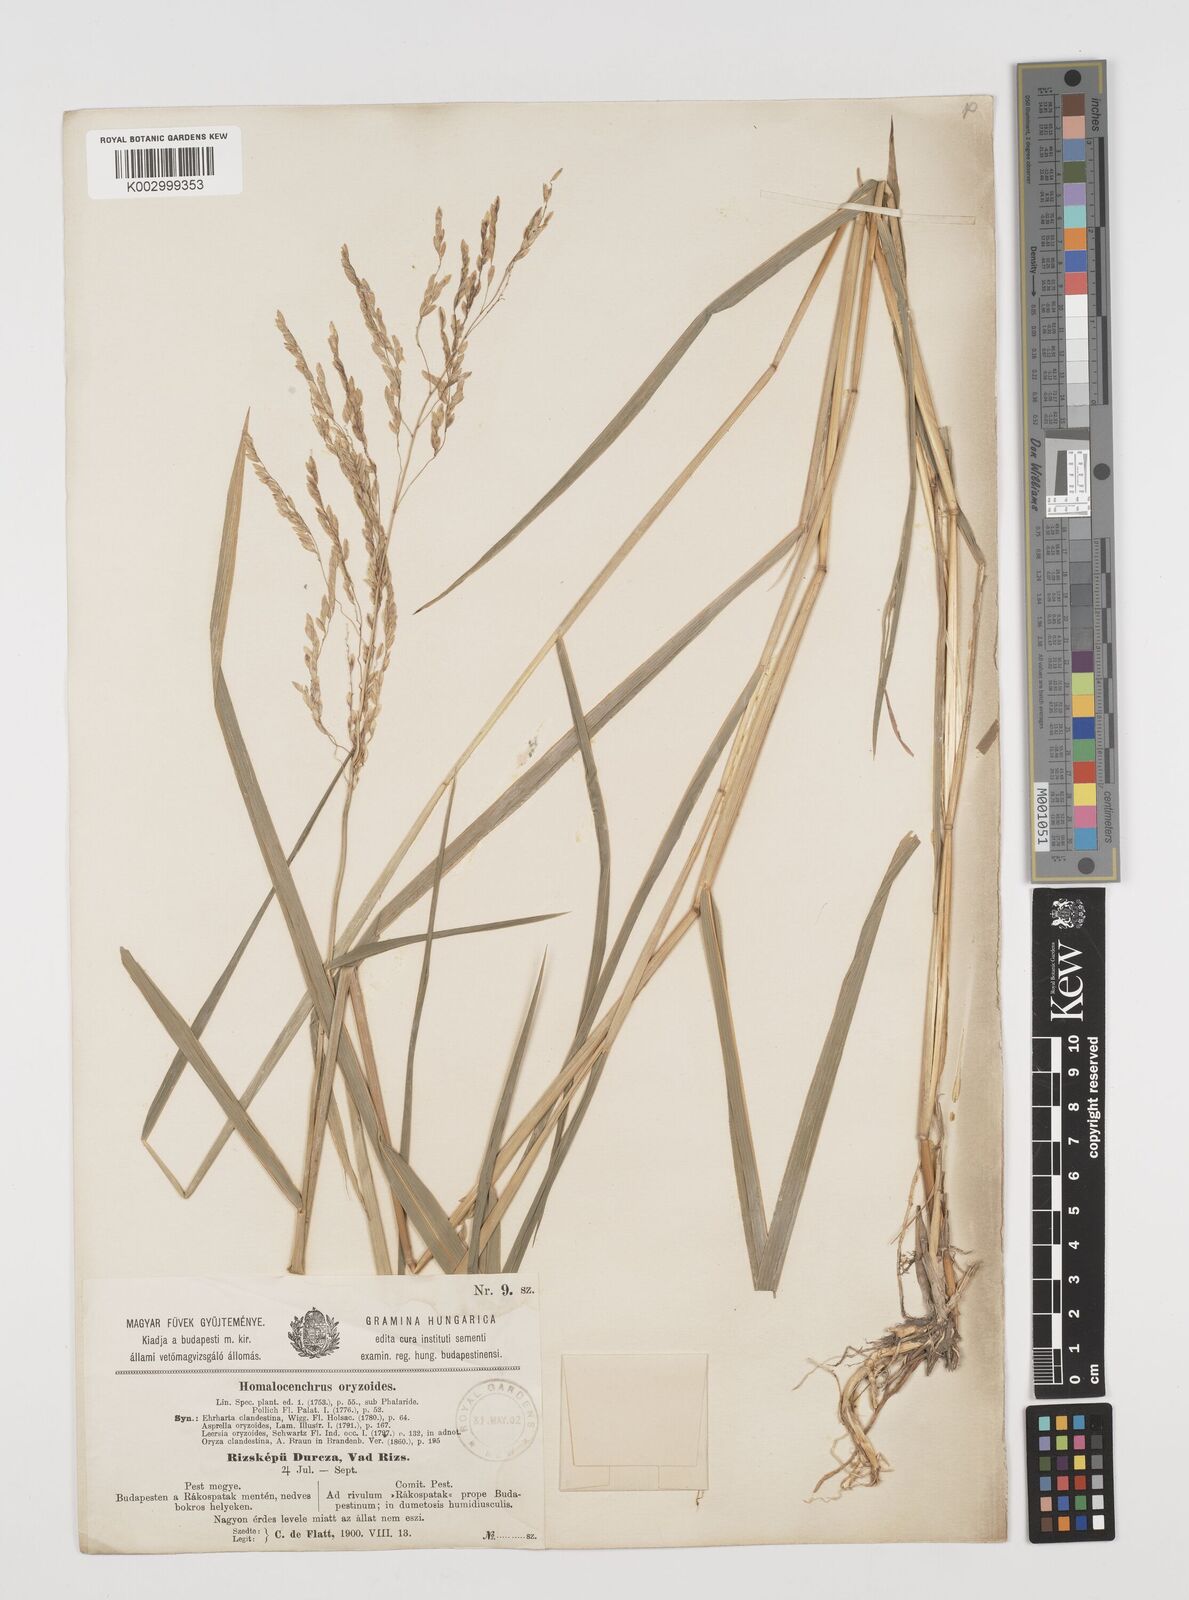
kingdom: Plantae
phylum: Tracheophyta
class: Liliopsida
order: Poales
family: Poaceae
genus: Leersia
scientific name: Leersia oryzoides
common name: Cut-grass
